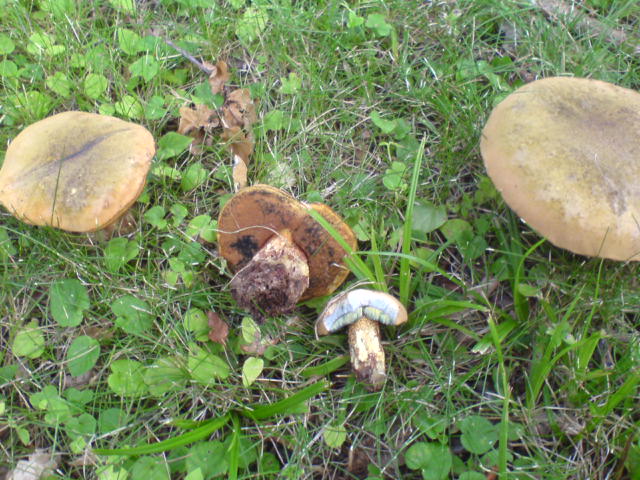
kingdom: Fungi
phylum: Basidiomycota
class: Agaricomycetes
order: Boletales
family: Boletaceae
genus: Suillellus
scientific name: Suillellus luridus
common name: netstokket indigorørhat
